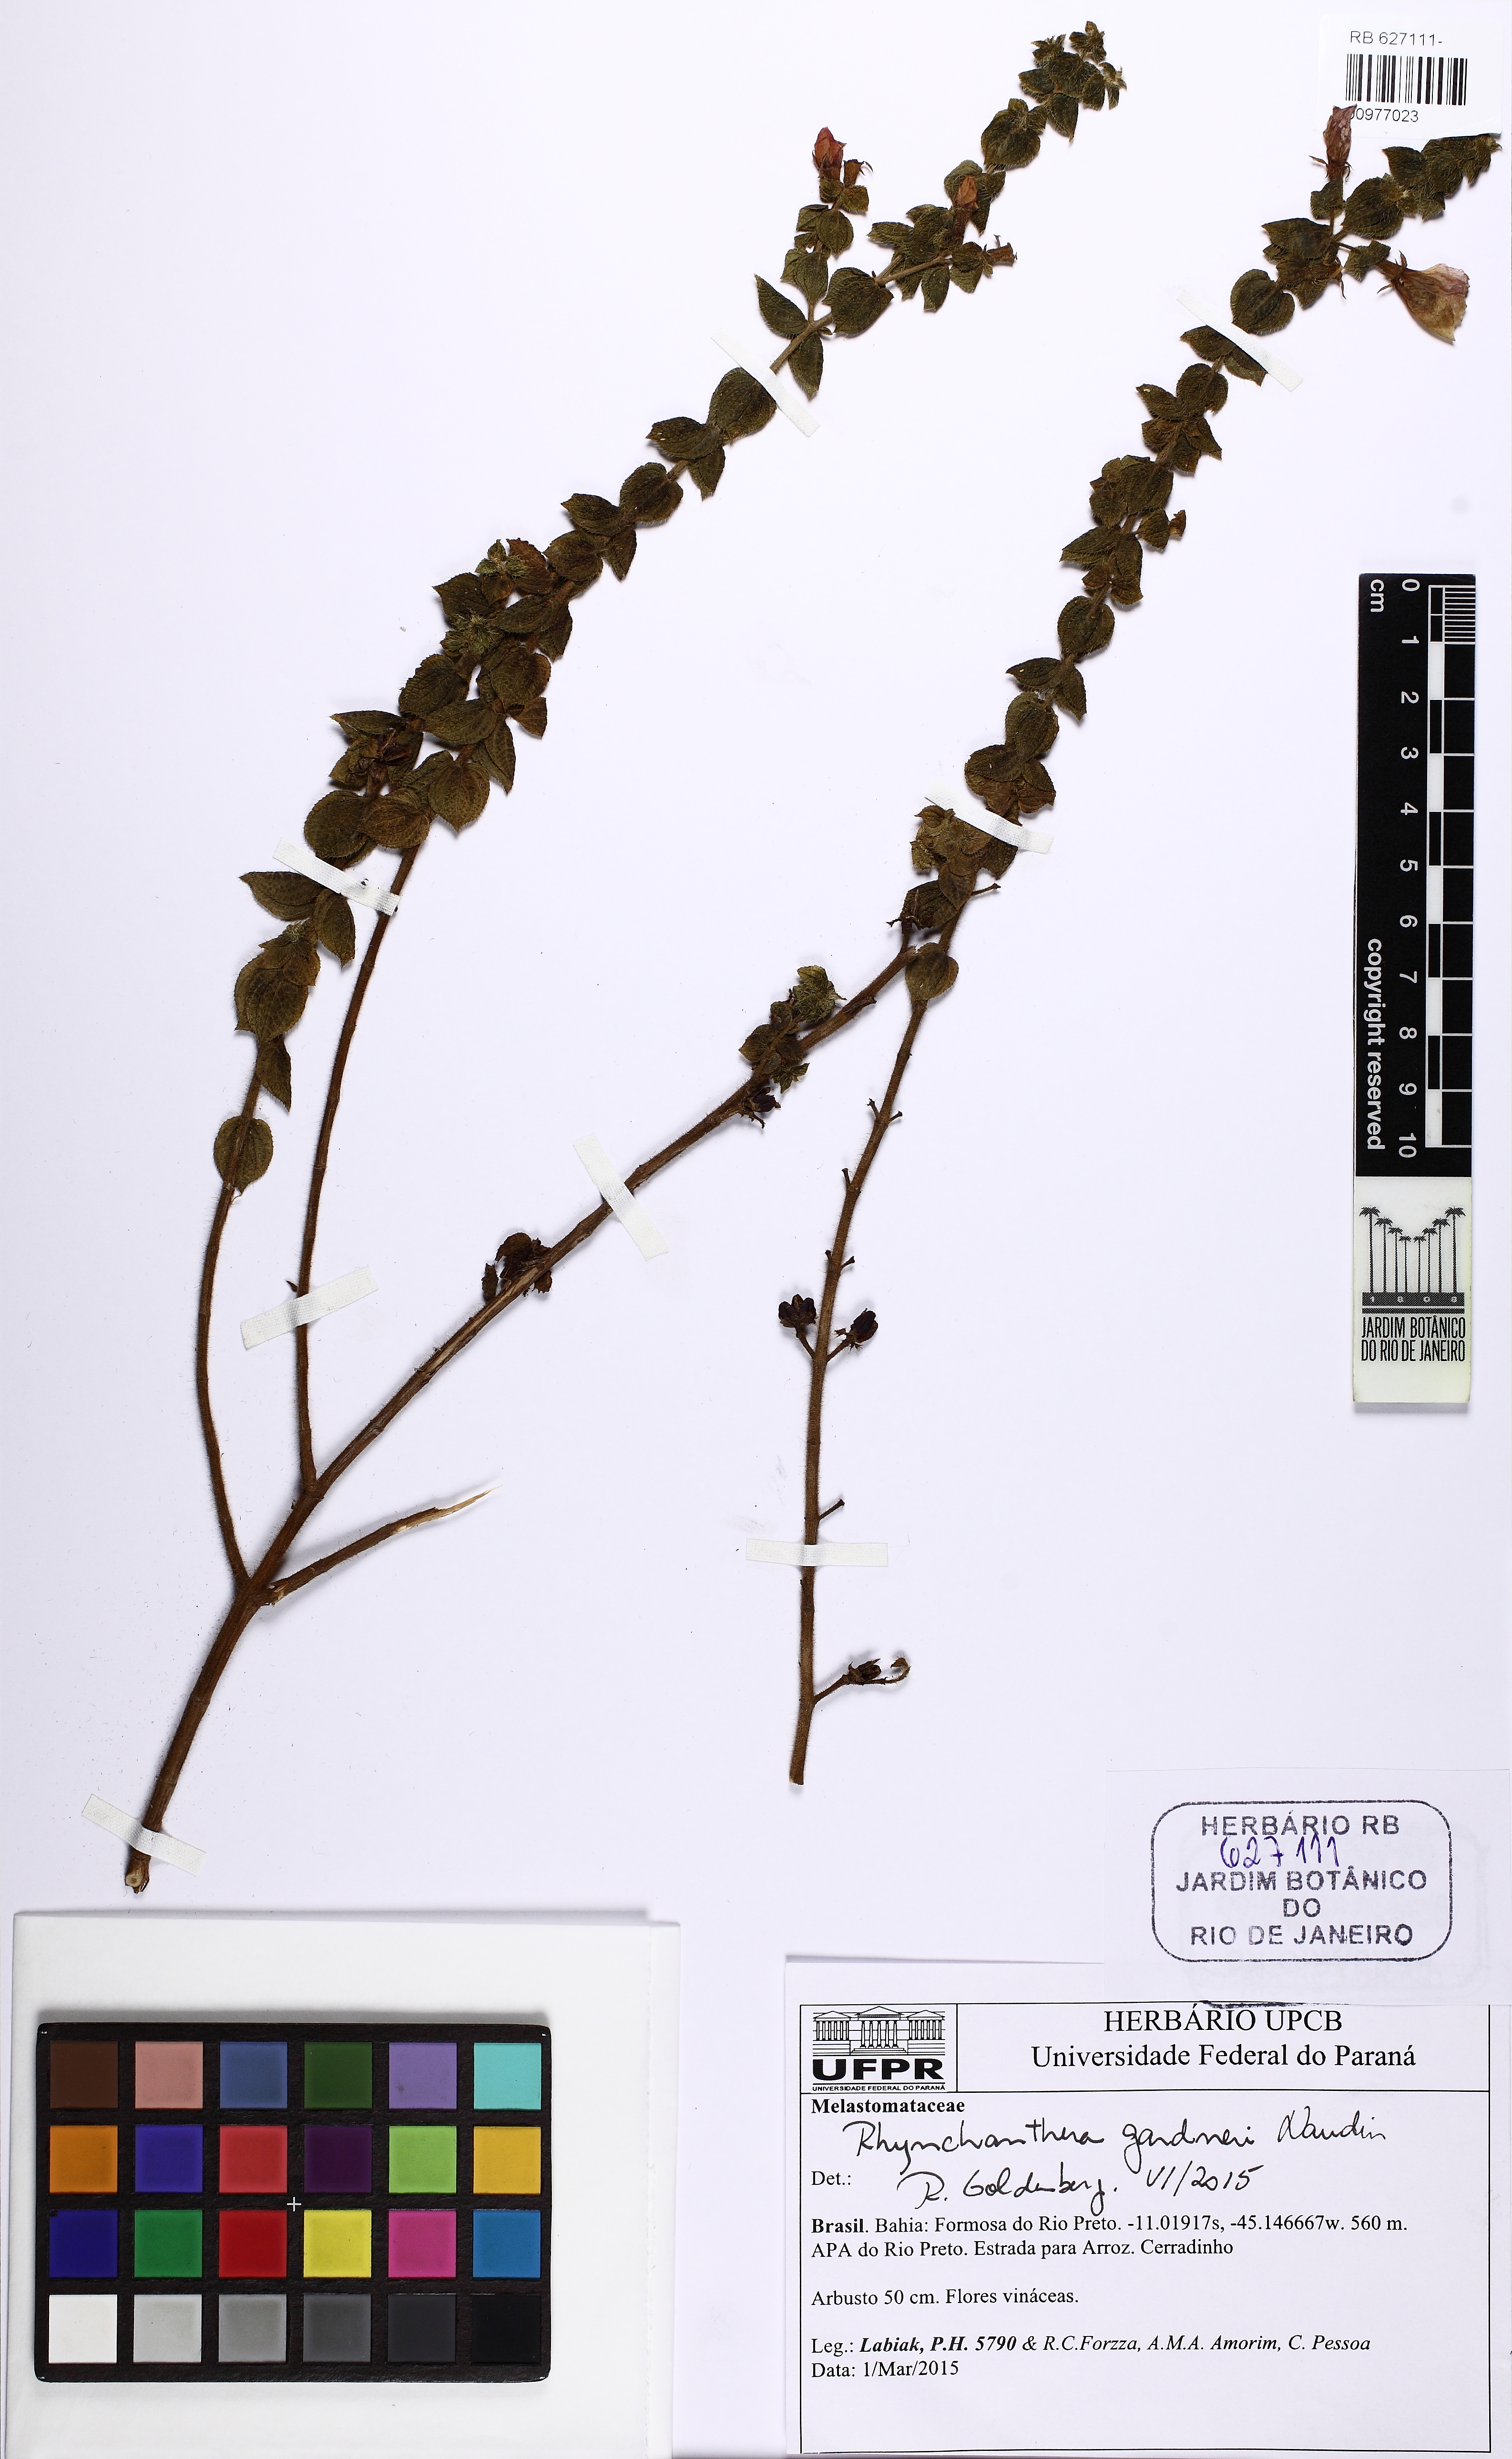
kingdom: Plantae
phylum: Tracheophyta
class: Magnoliopsida
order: Myrtales
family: Melastomataceae
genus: Rhynchanthera
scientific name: Rhynchanthera gardneri
